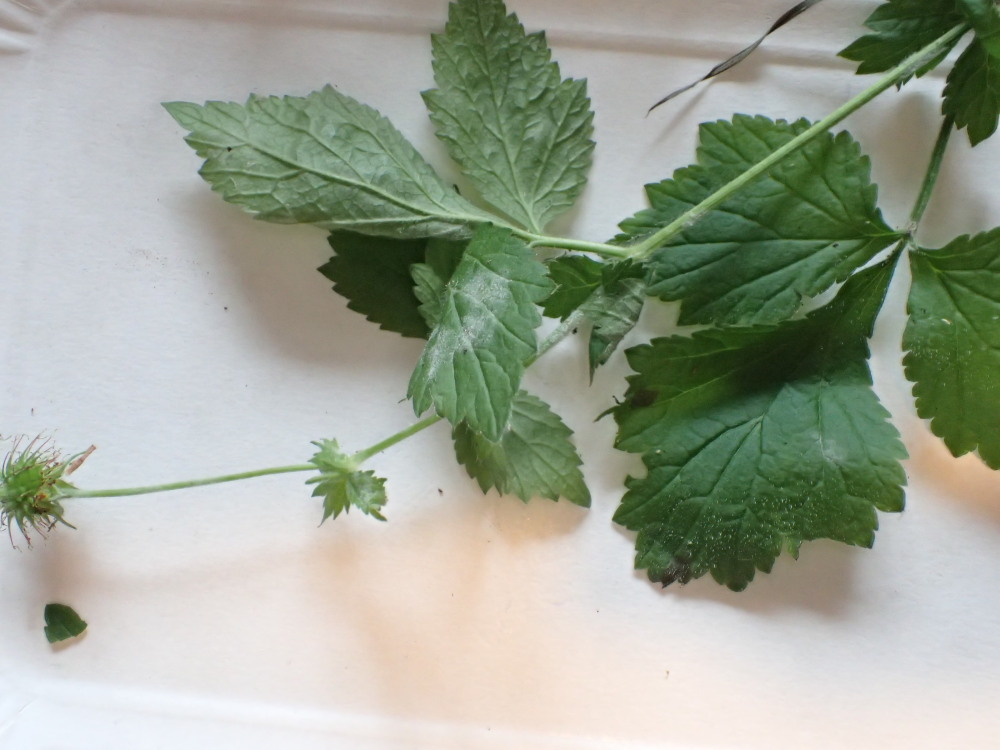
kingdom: Fungi
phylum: Ascomycota
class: Leotiomycetes
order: Helotiales
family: Erysiphaceae
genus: Podosphaera
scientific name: Podosphaera aphanis
